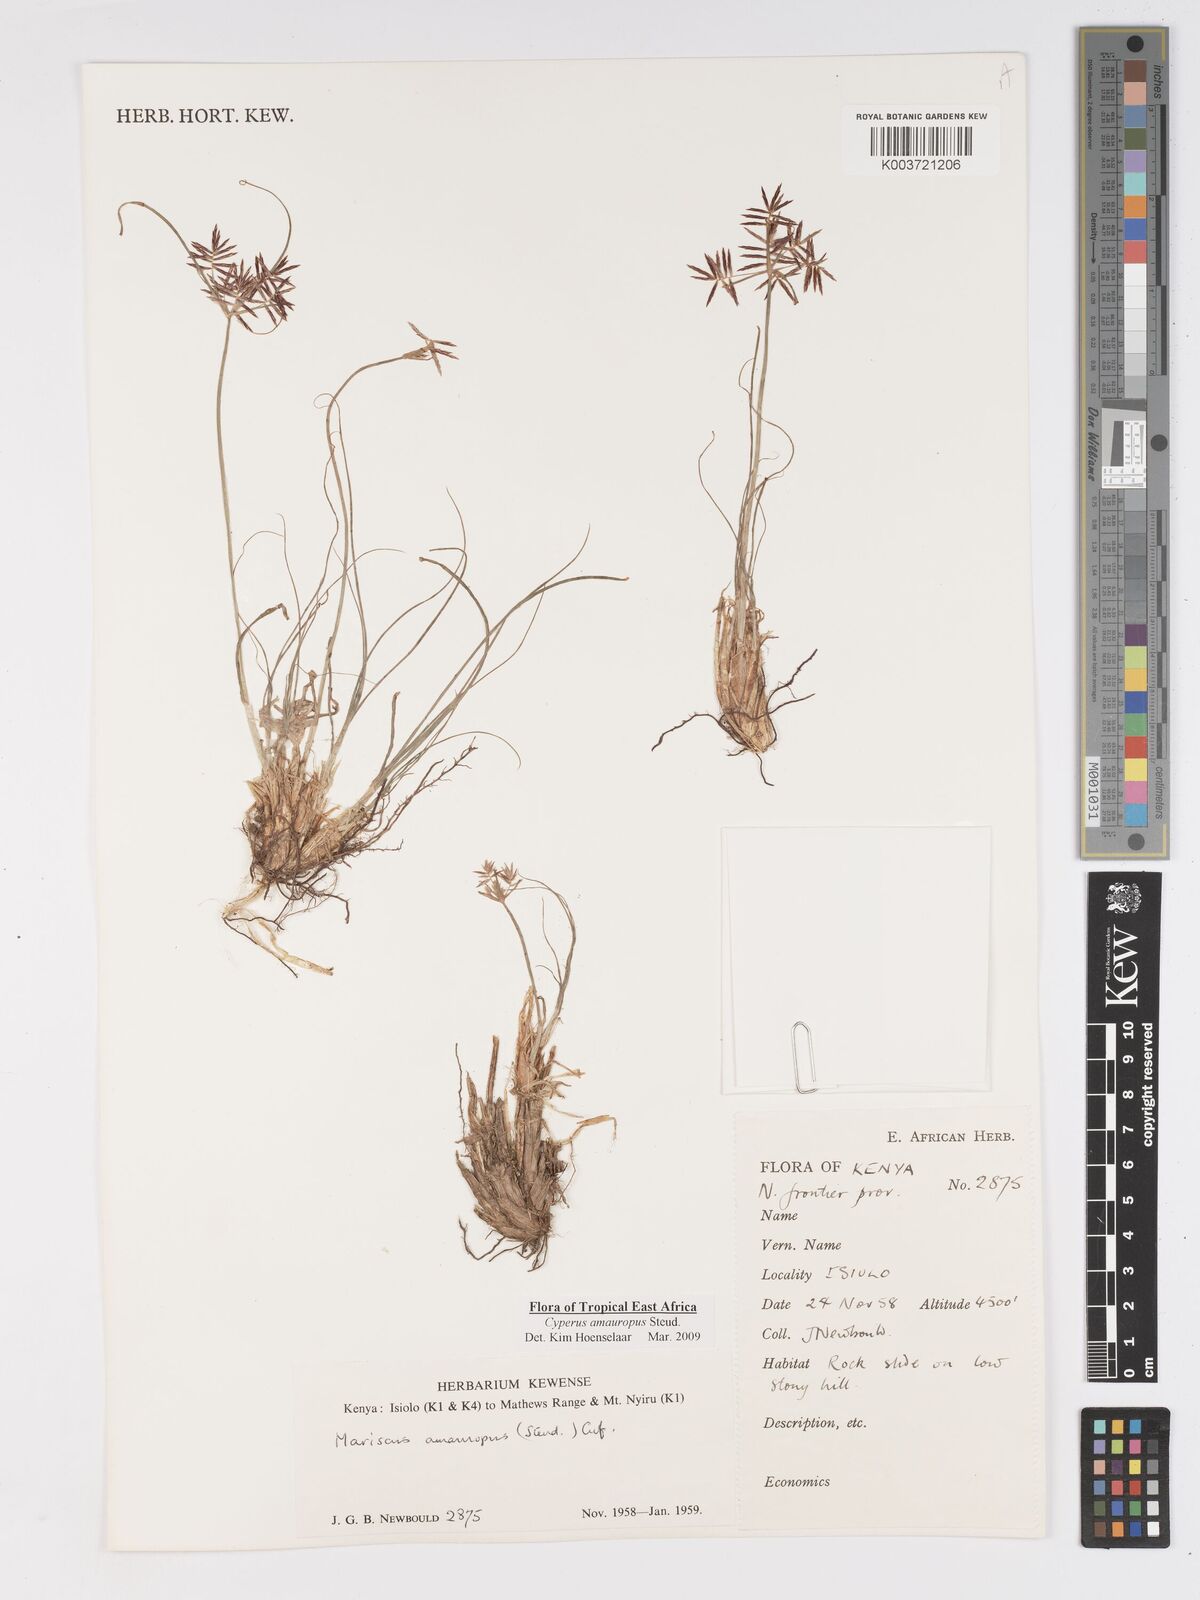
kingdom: Plantae
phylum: Tracheophyta
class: Liliopsida
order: Poales
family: Cyperaceae
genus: Cyperus
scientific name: Cyperus amauropus
